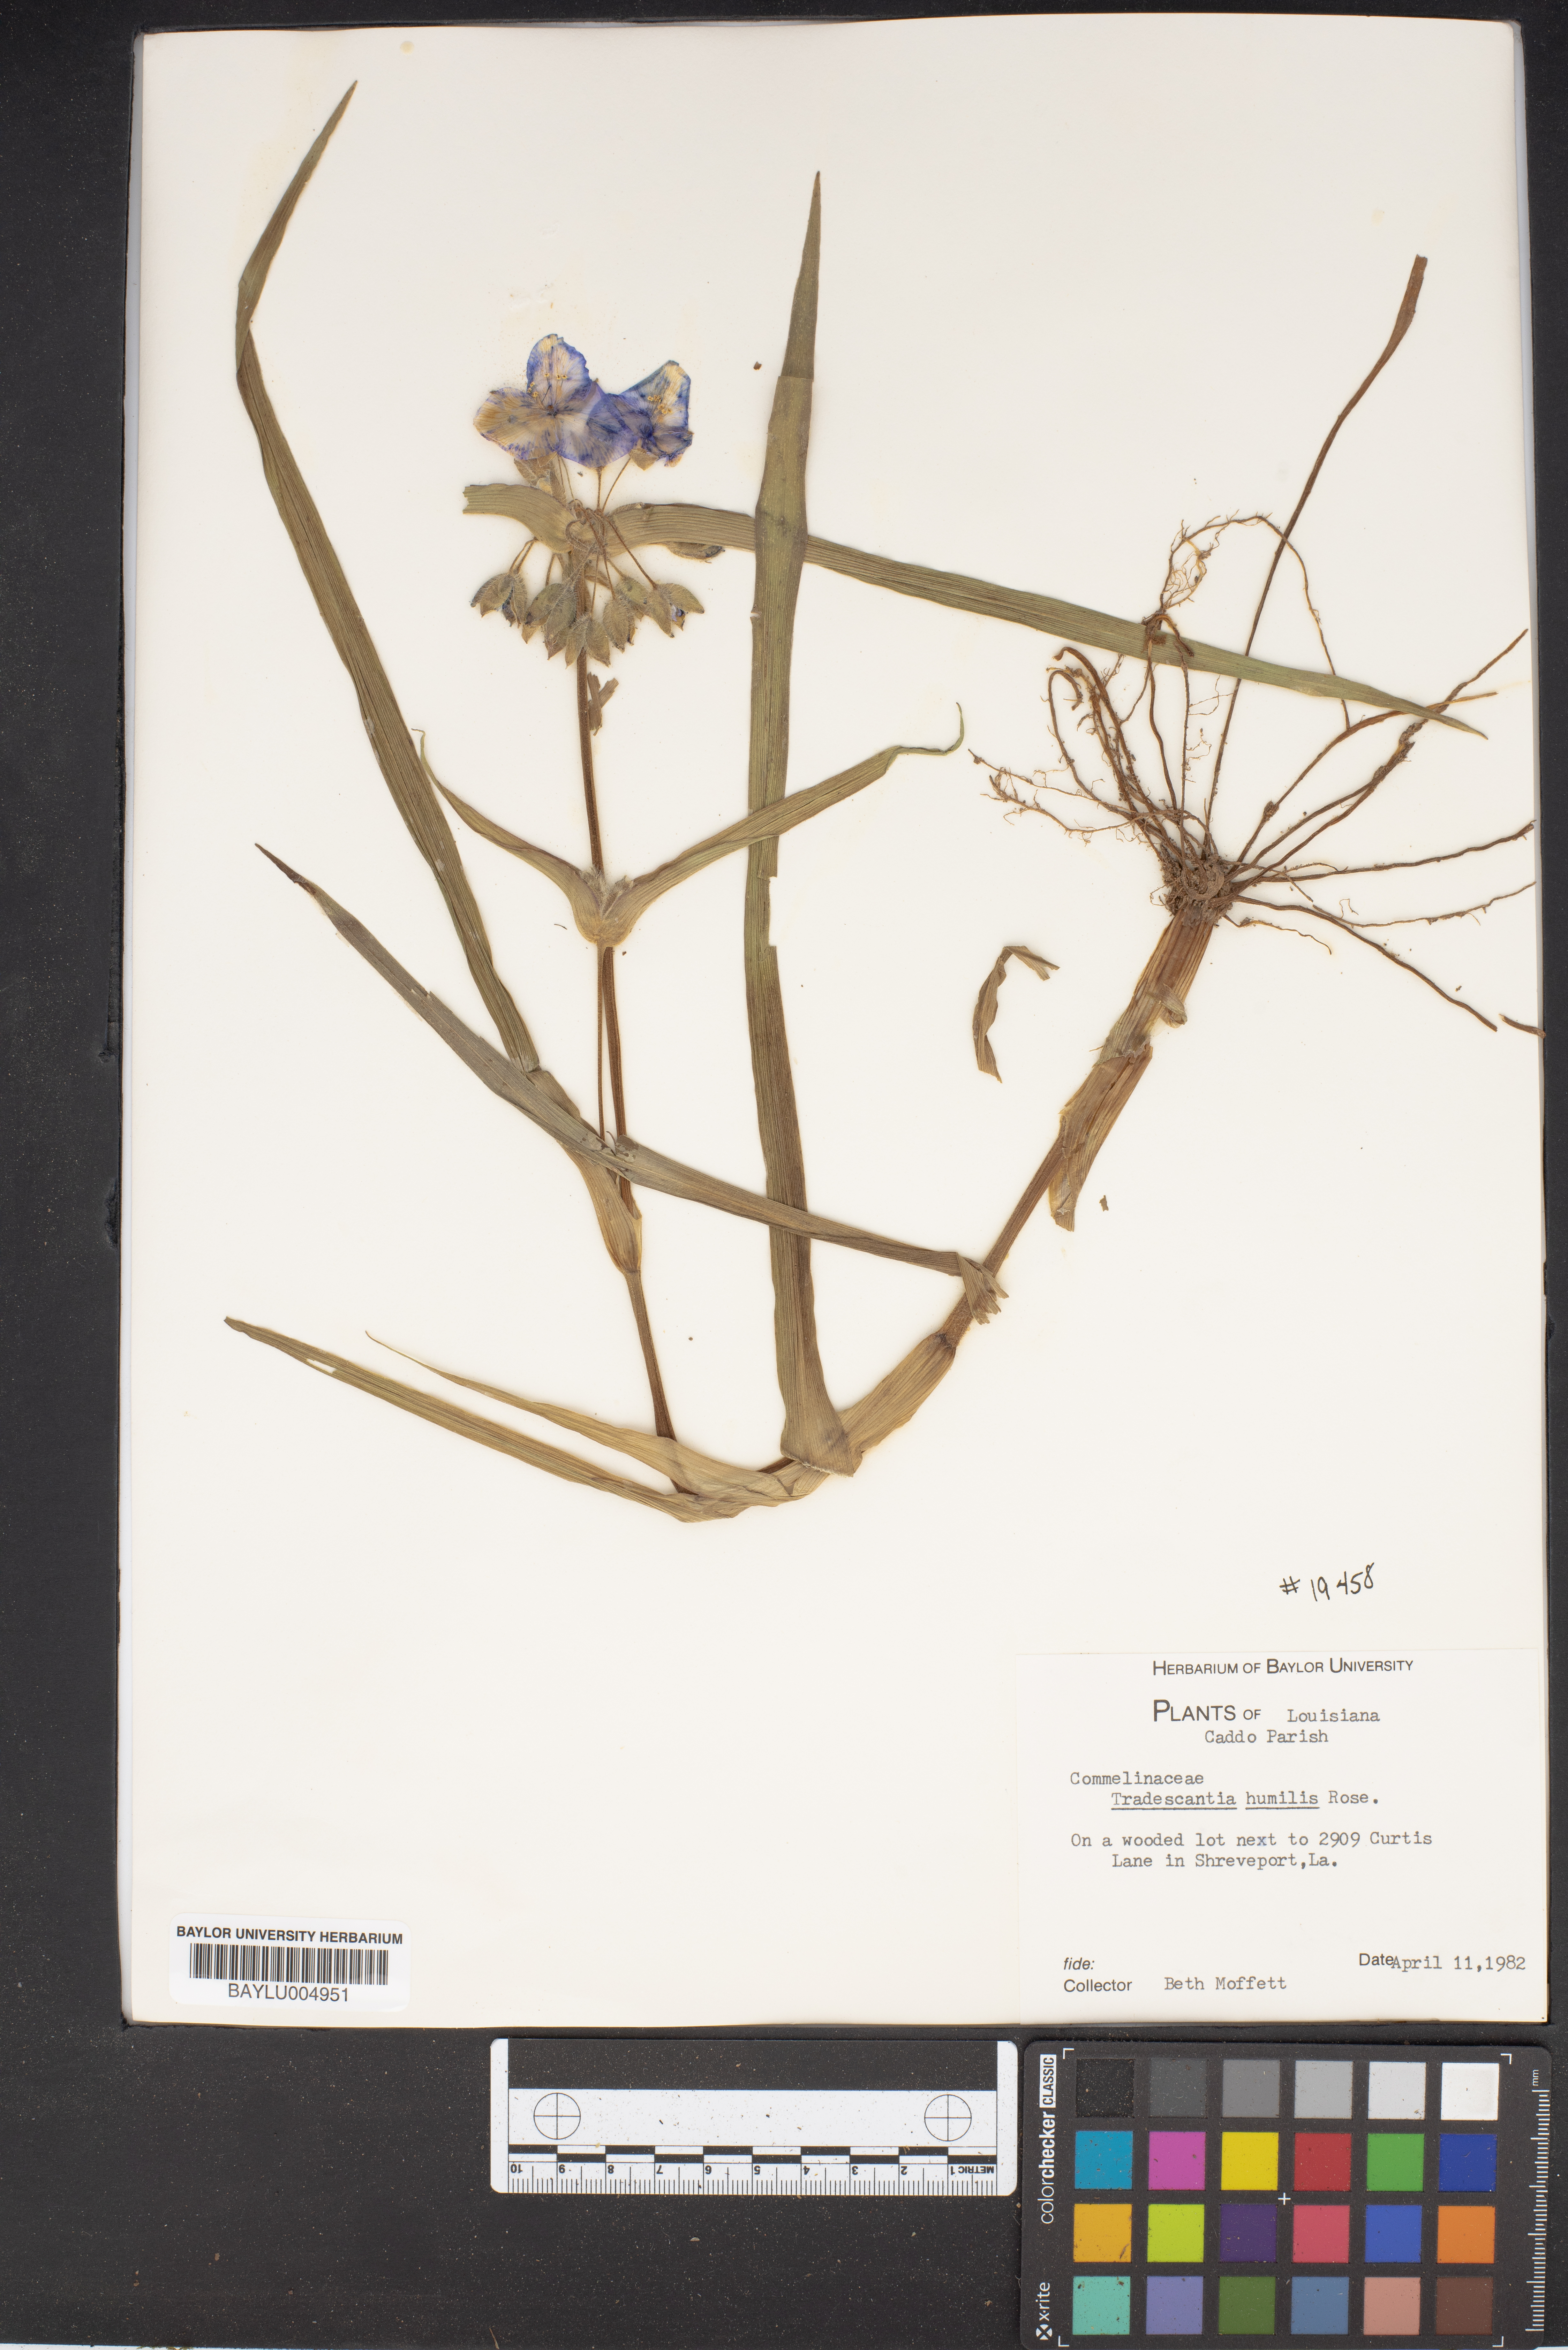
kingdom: Plantae
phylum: Tracheophyta
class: Liliopsida
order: Commelinales
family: Commelinaceae
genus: Tradescantia
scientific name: Tradescantia humilis
